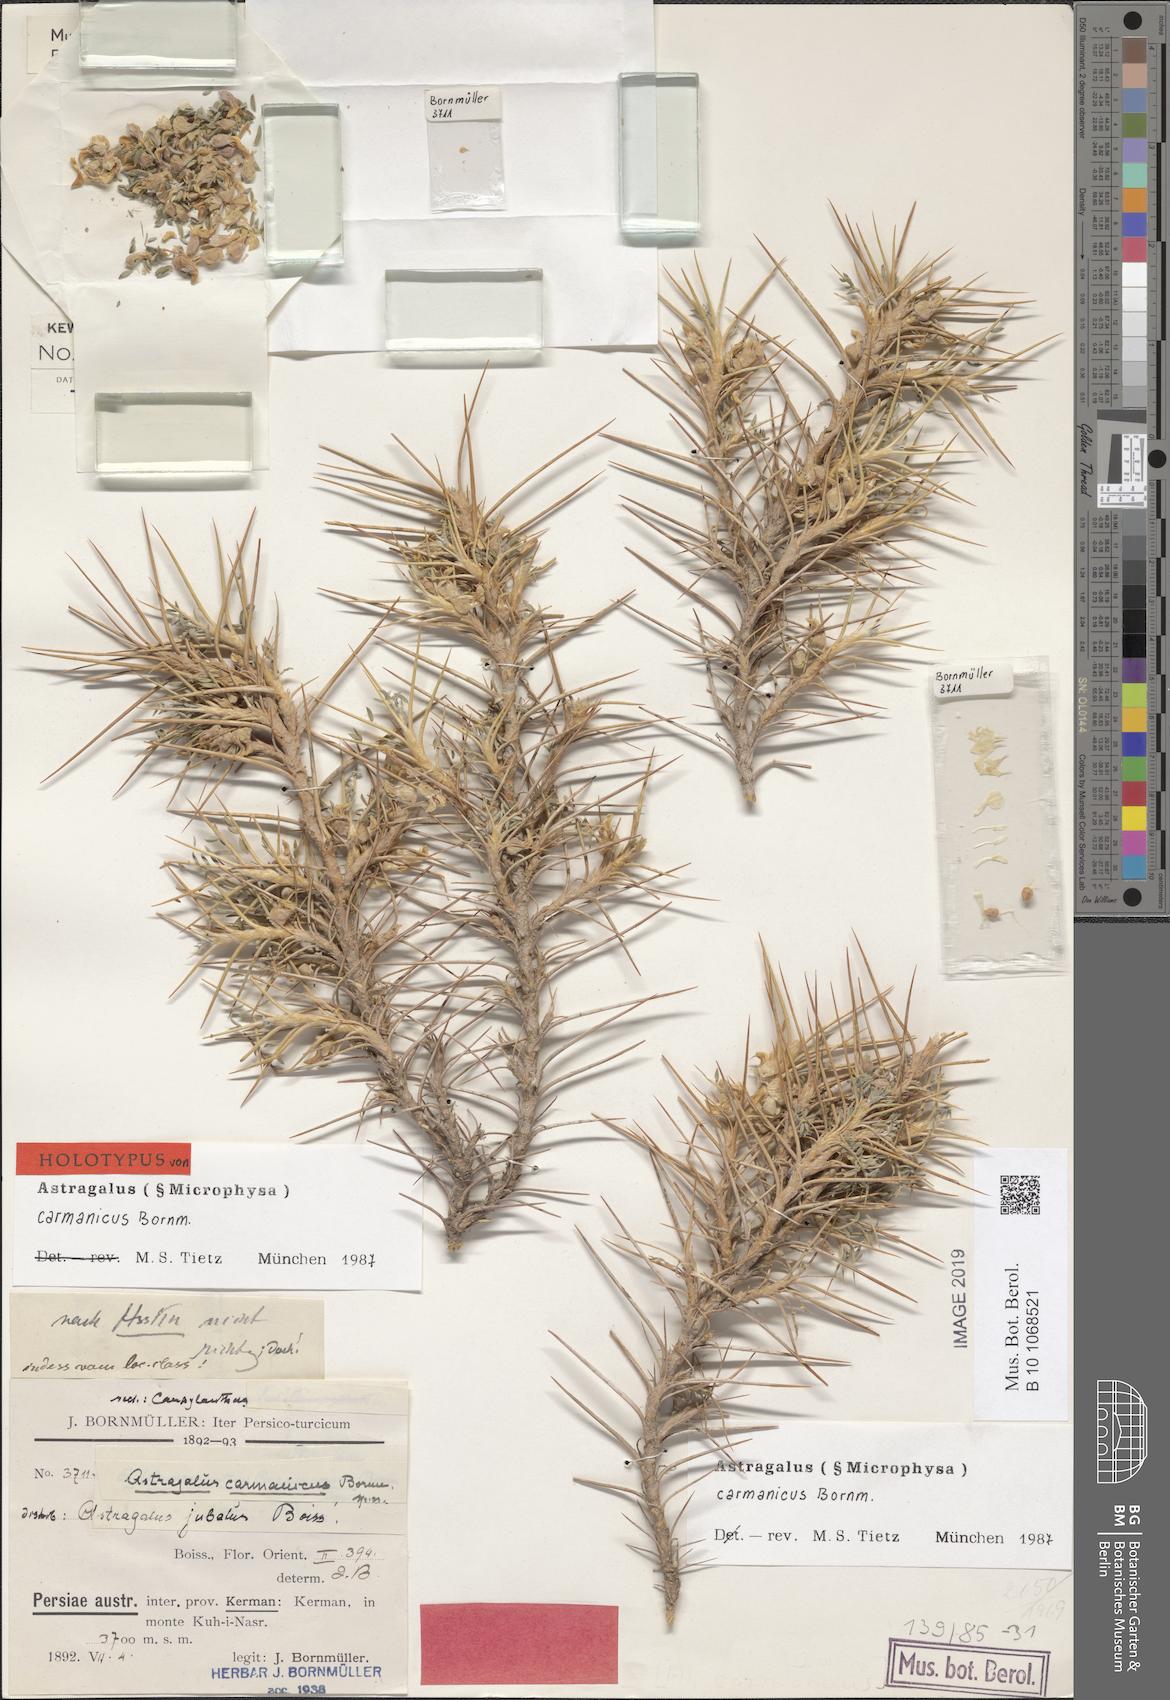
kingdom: Plantae
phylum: Tracheophyta
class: Magnoliopsida
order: Fabales
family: Fabaceae
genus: Astragalus
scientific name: Astragalus carmanicus
